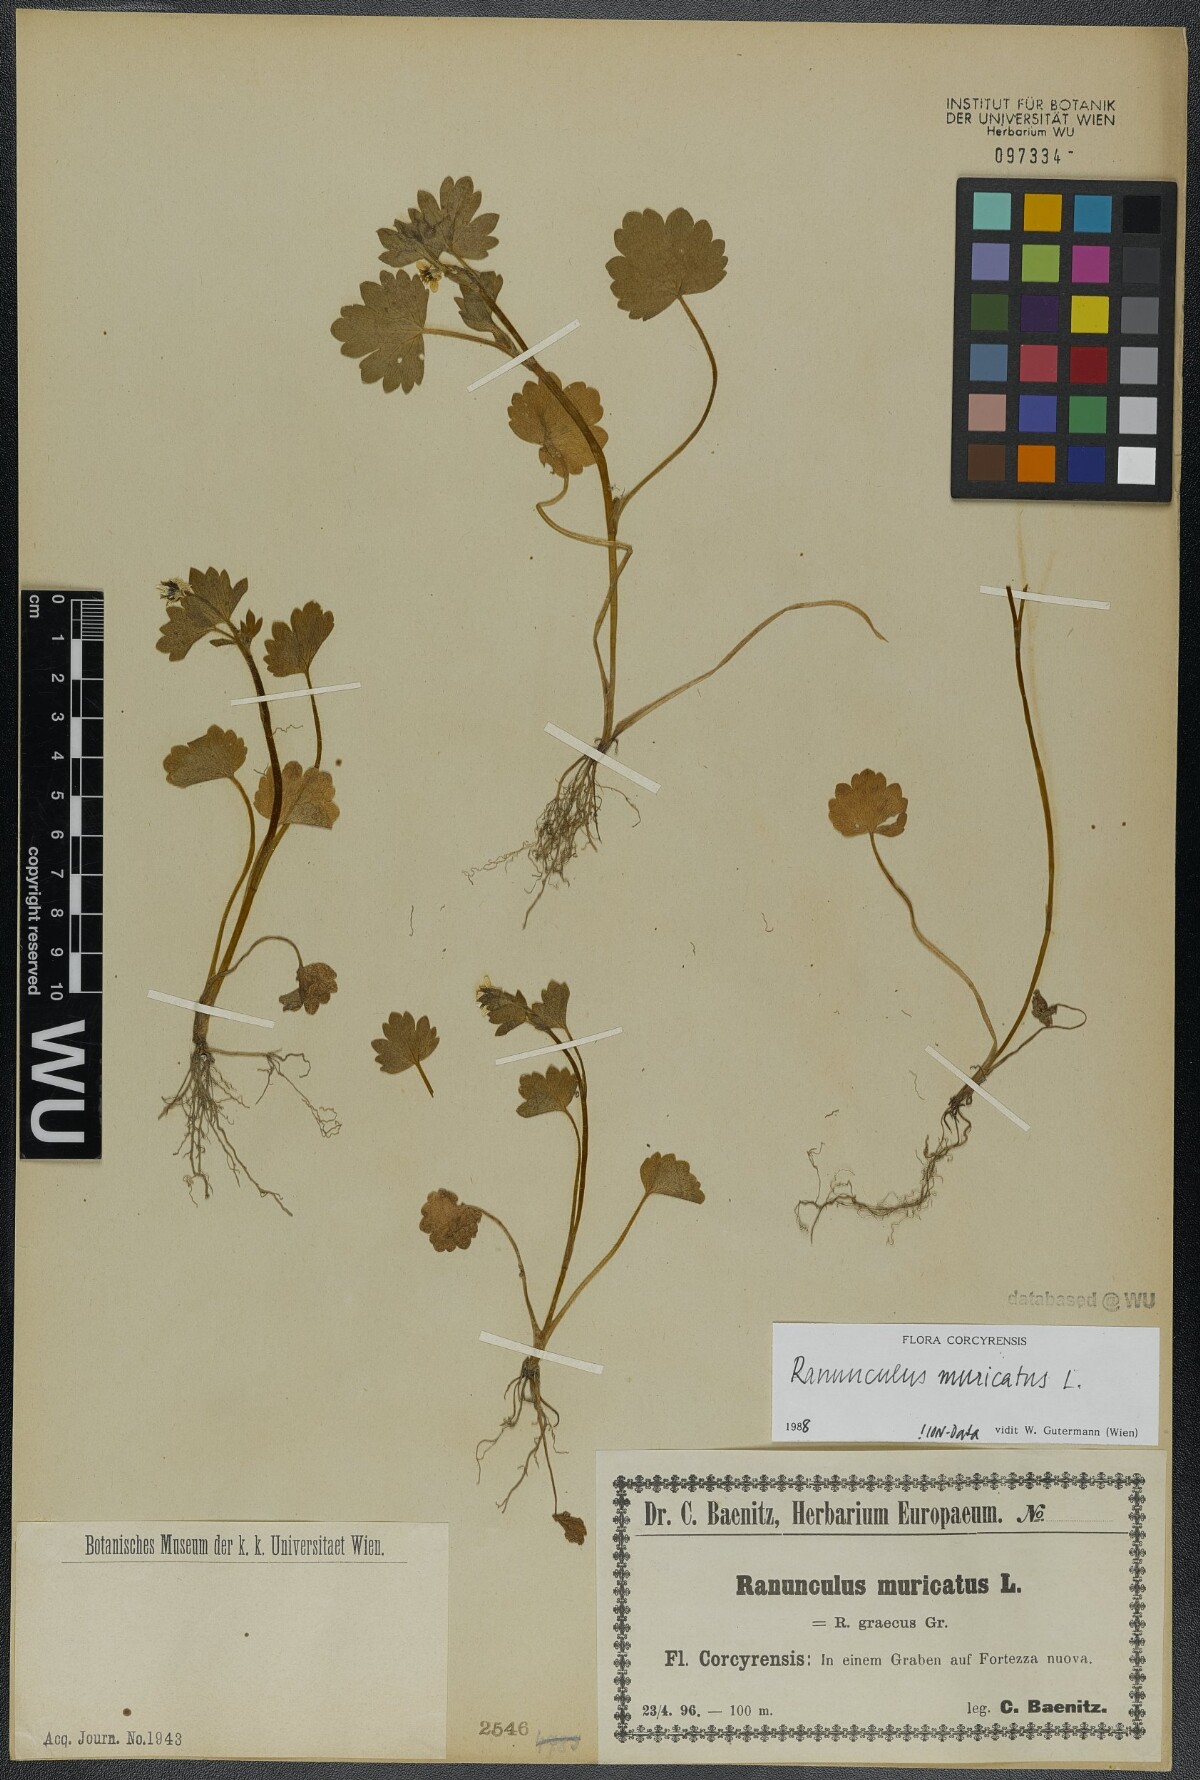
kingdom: Plantae
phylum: Tracheophyta
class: Magnoliopsida
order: Ranunculales
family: Ranunculaceae
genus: Ranunculus
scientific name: Ranunculus muricatus
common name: Rough-fruited buttercup
